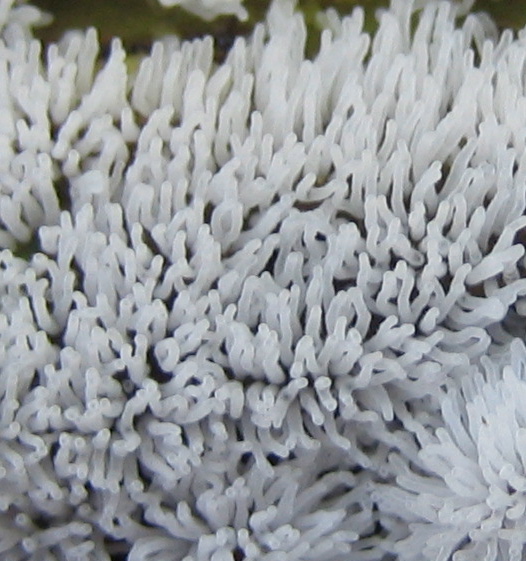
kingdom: Protozoa
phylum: Mycetozoa
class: Protosteliomycetes
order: Ceratiomyxales
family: Ceratiomyxaceae
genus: Ceratiomyxa
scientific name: Ceratiomyxa fruticulosa
